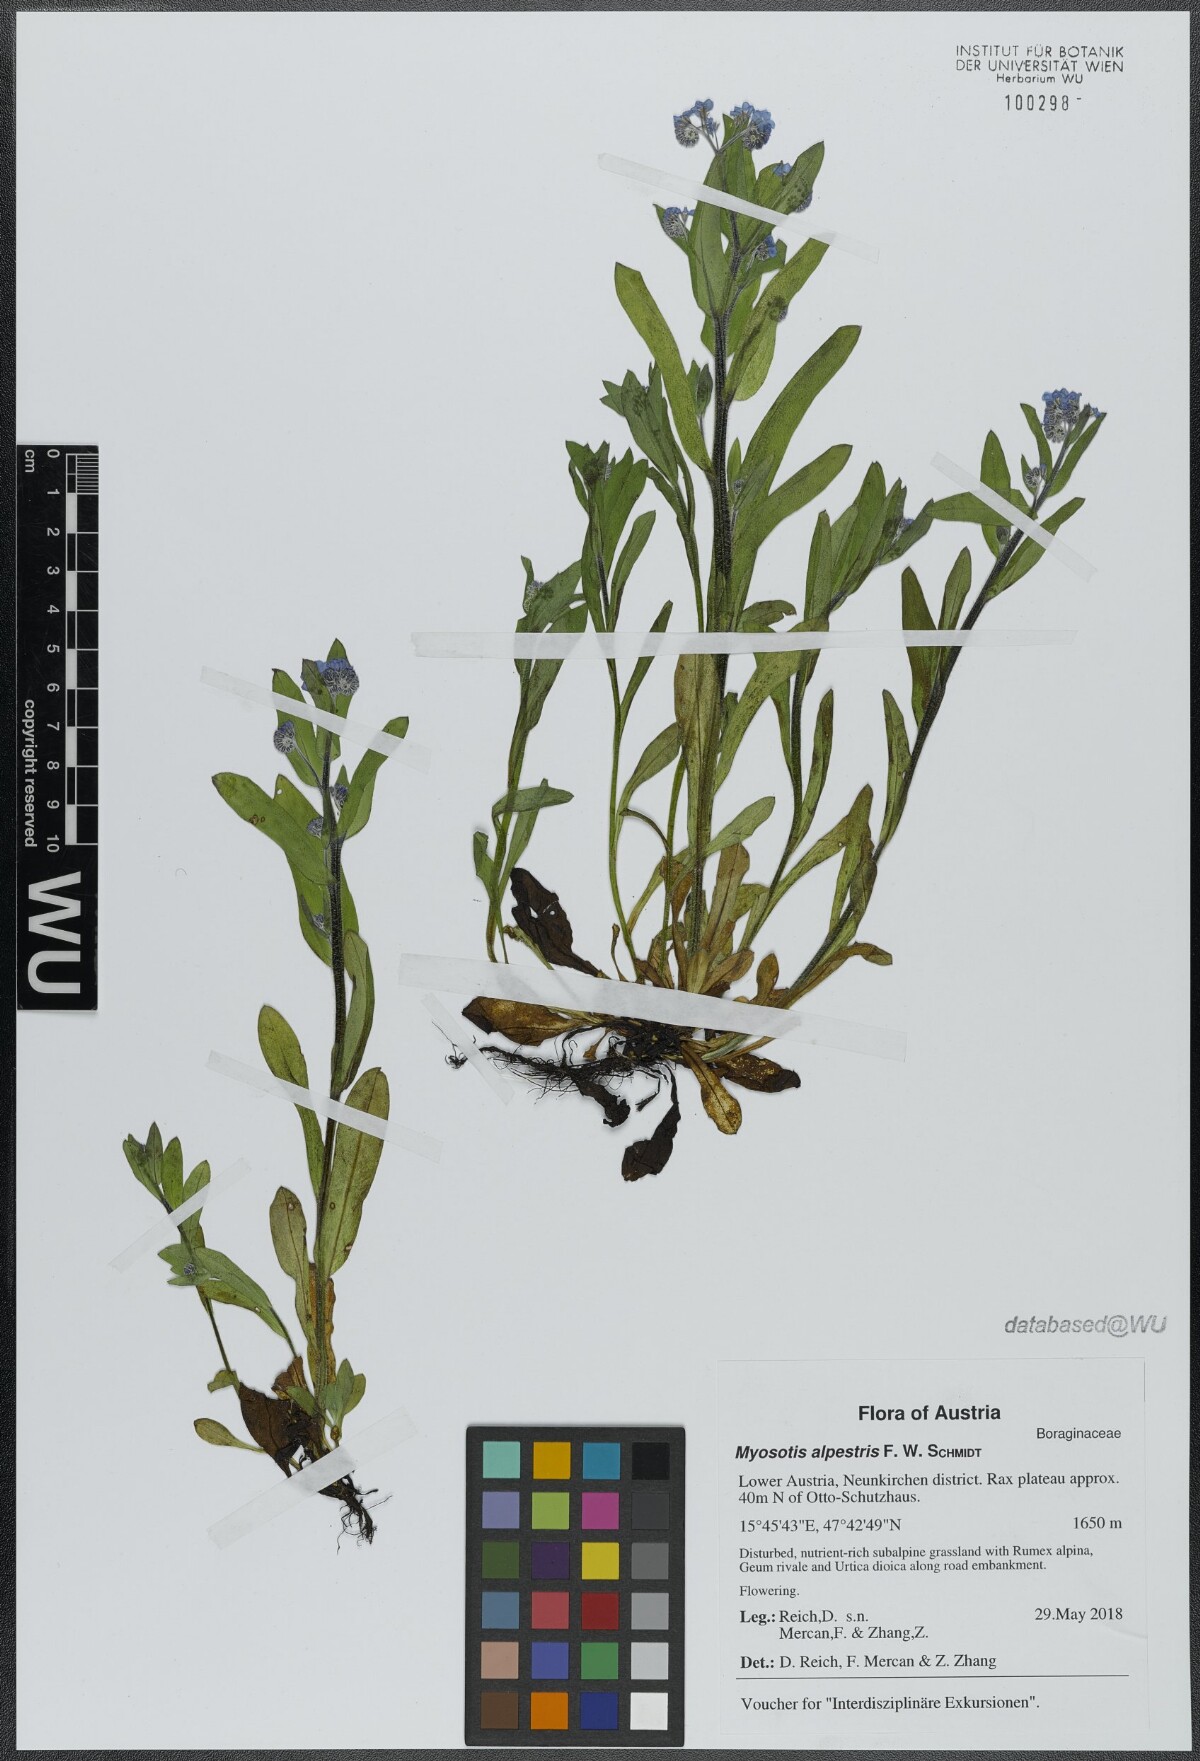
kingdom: Plantae
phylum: Tracheophyta
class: Magnoliopsida
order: Boraginales
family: Boraginaceae
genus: Myosotis
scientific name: Myosotis alpestris
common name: Alpine forget-me-not
